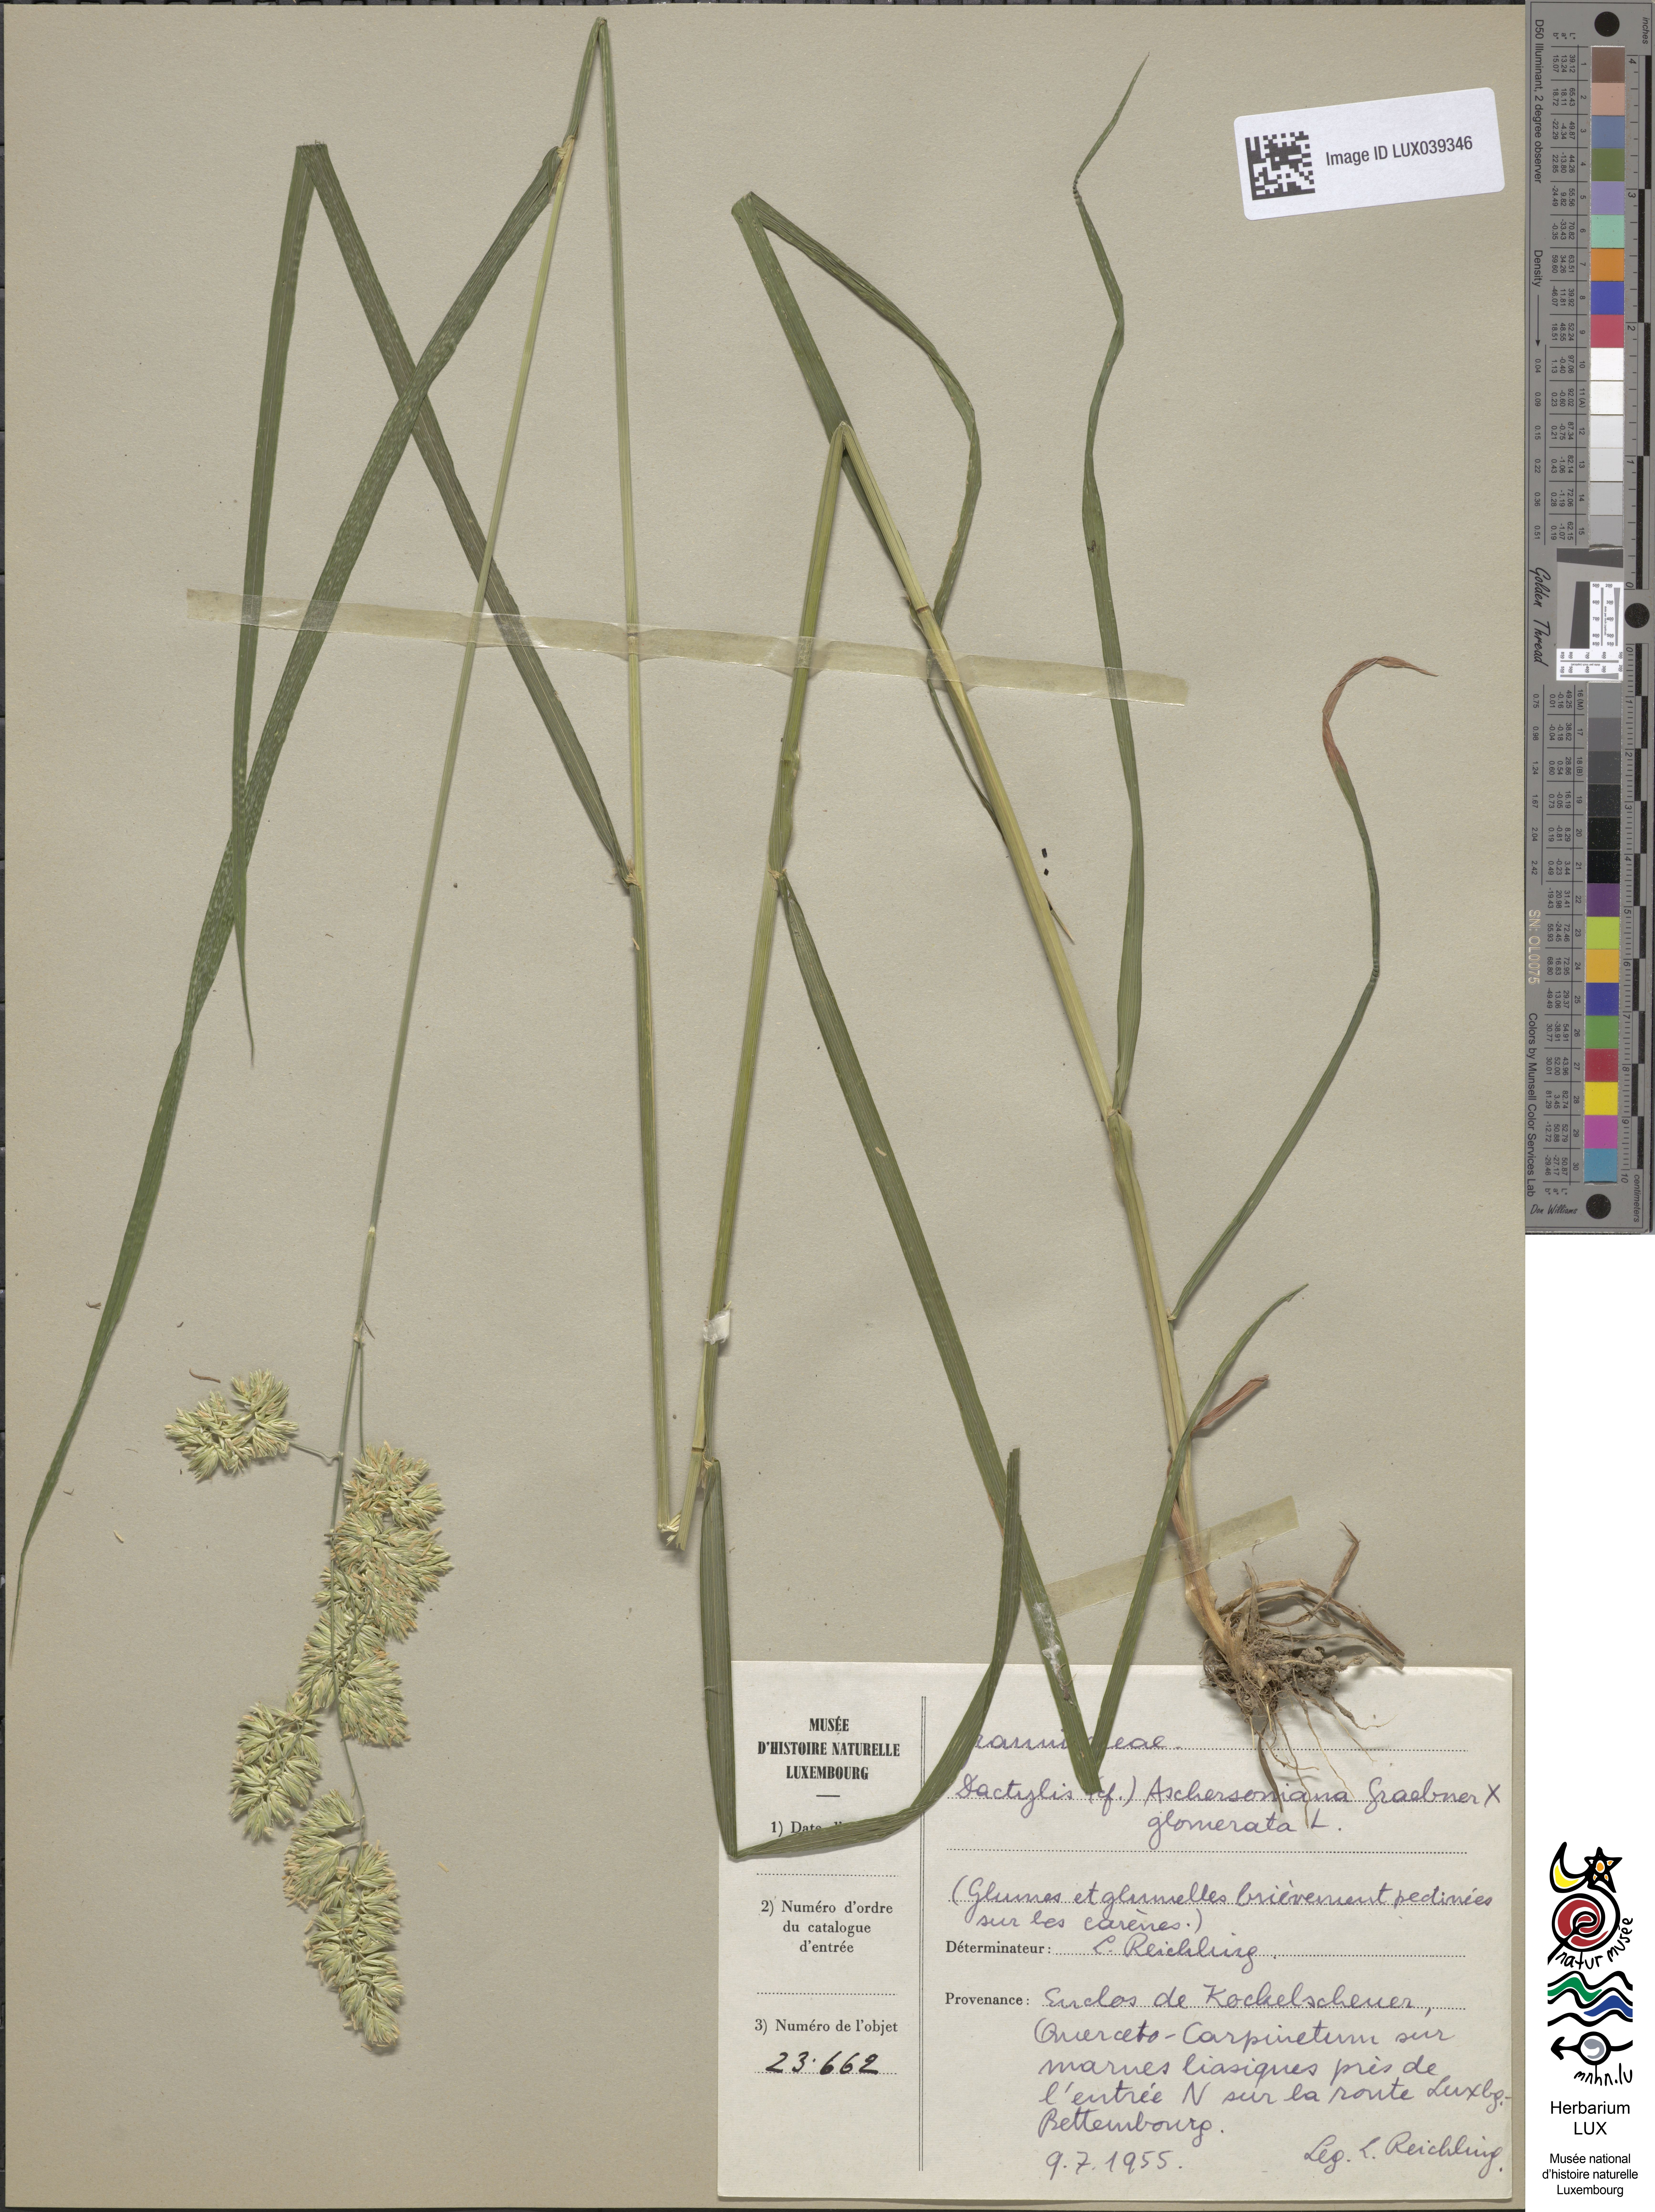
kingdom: Plantae
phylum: Tracheophyta
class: Liliopsida
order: Poales
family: Poaceae
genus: Dactylis
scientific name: Dactylis glomerata
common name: Orchardgrass
